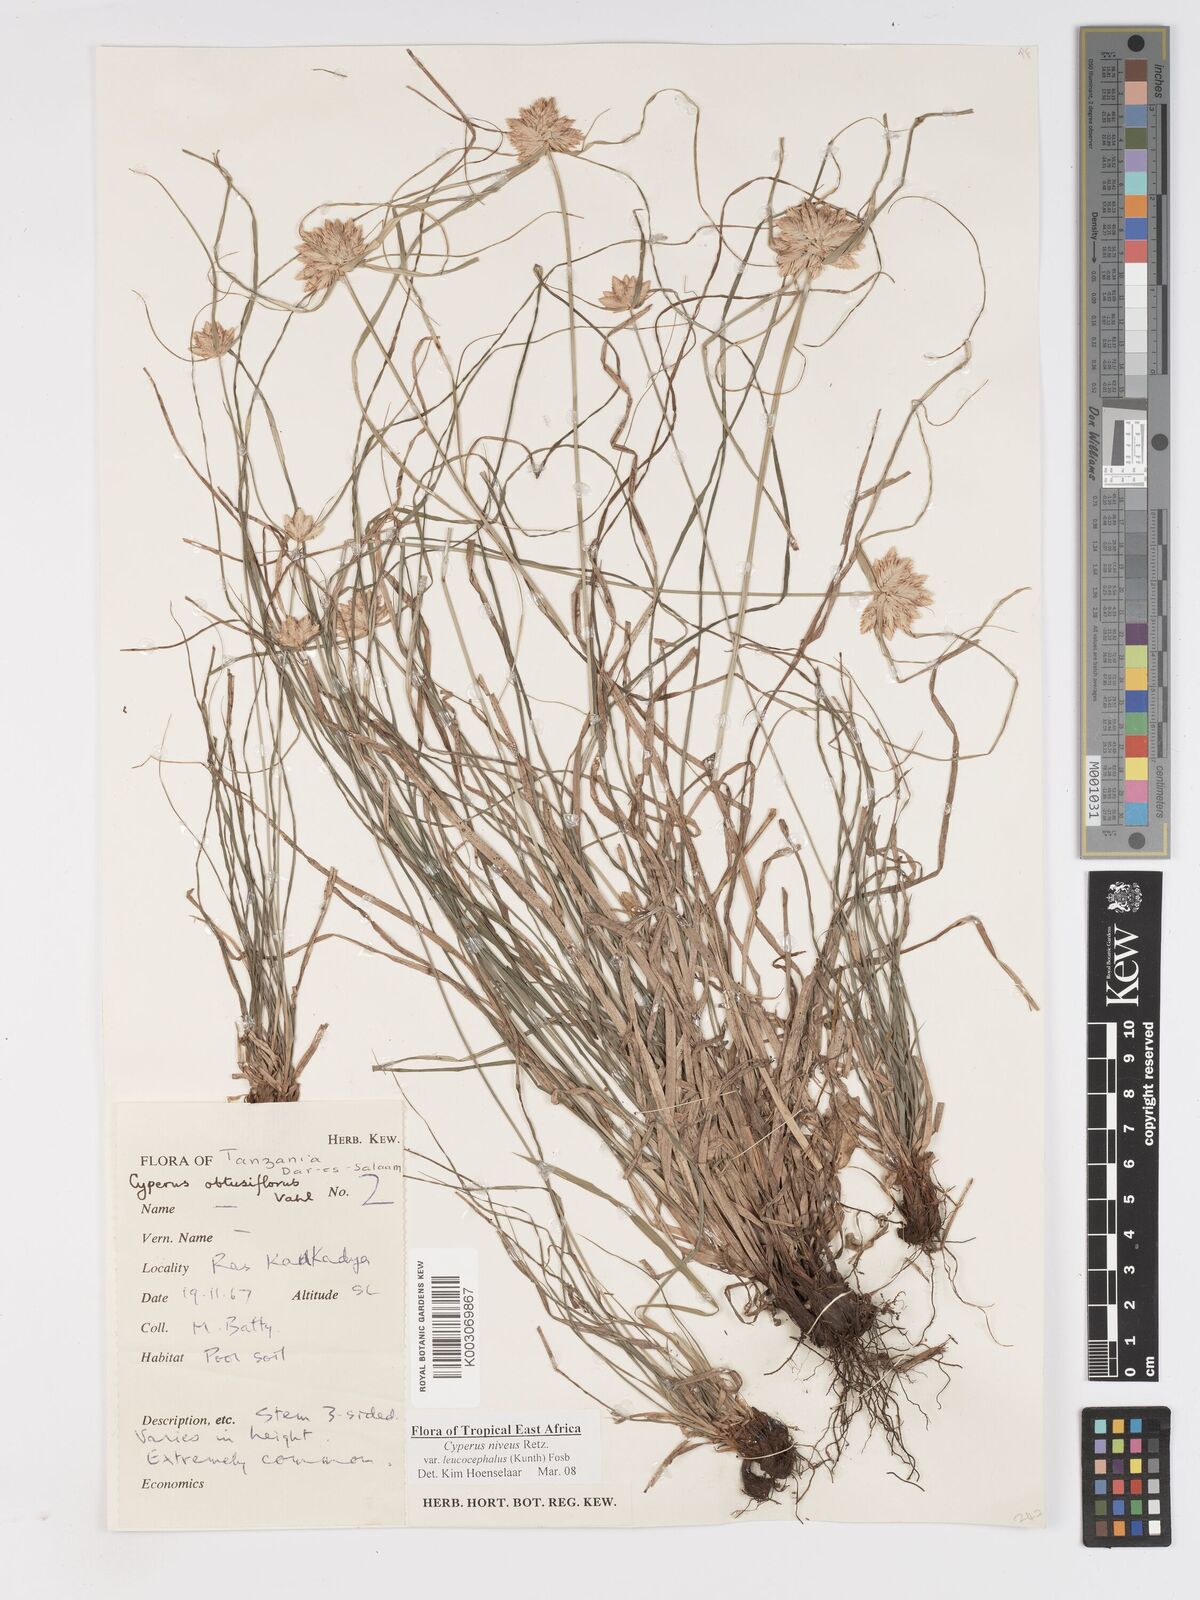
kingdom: Plantae
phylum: Tracheophyta
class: Liliopsida
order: Poales
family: Cyperaceae
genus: Cyperus
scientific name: Cyperus niveus
